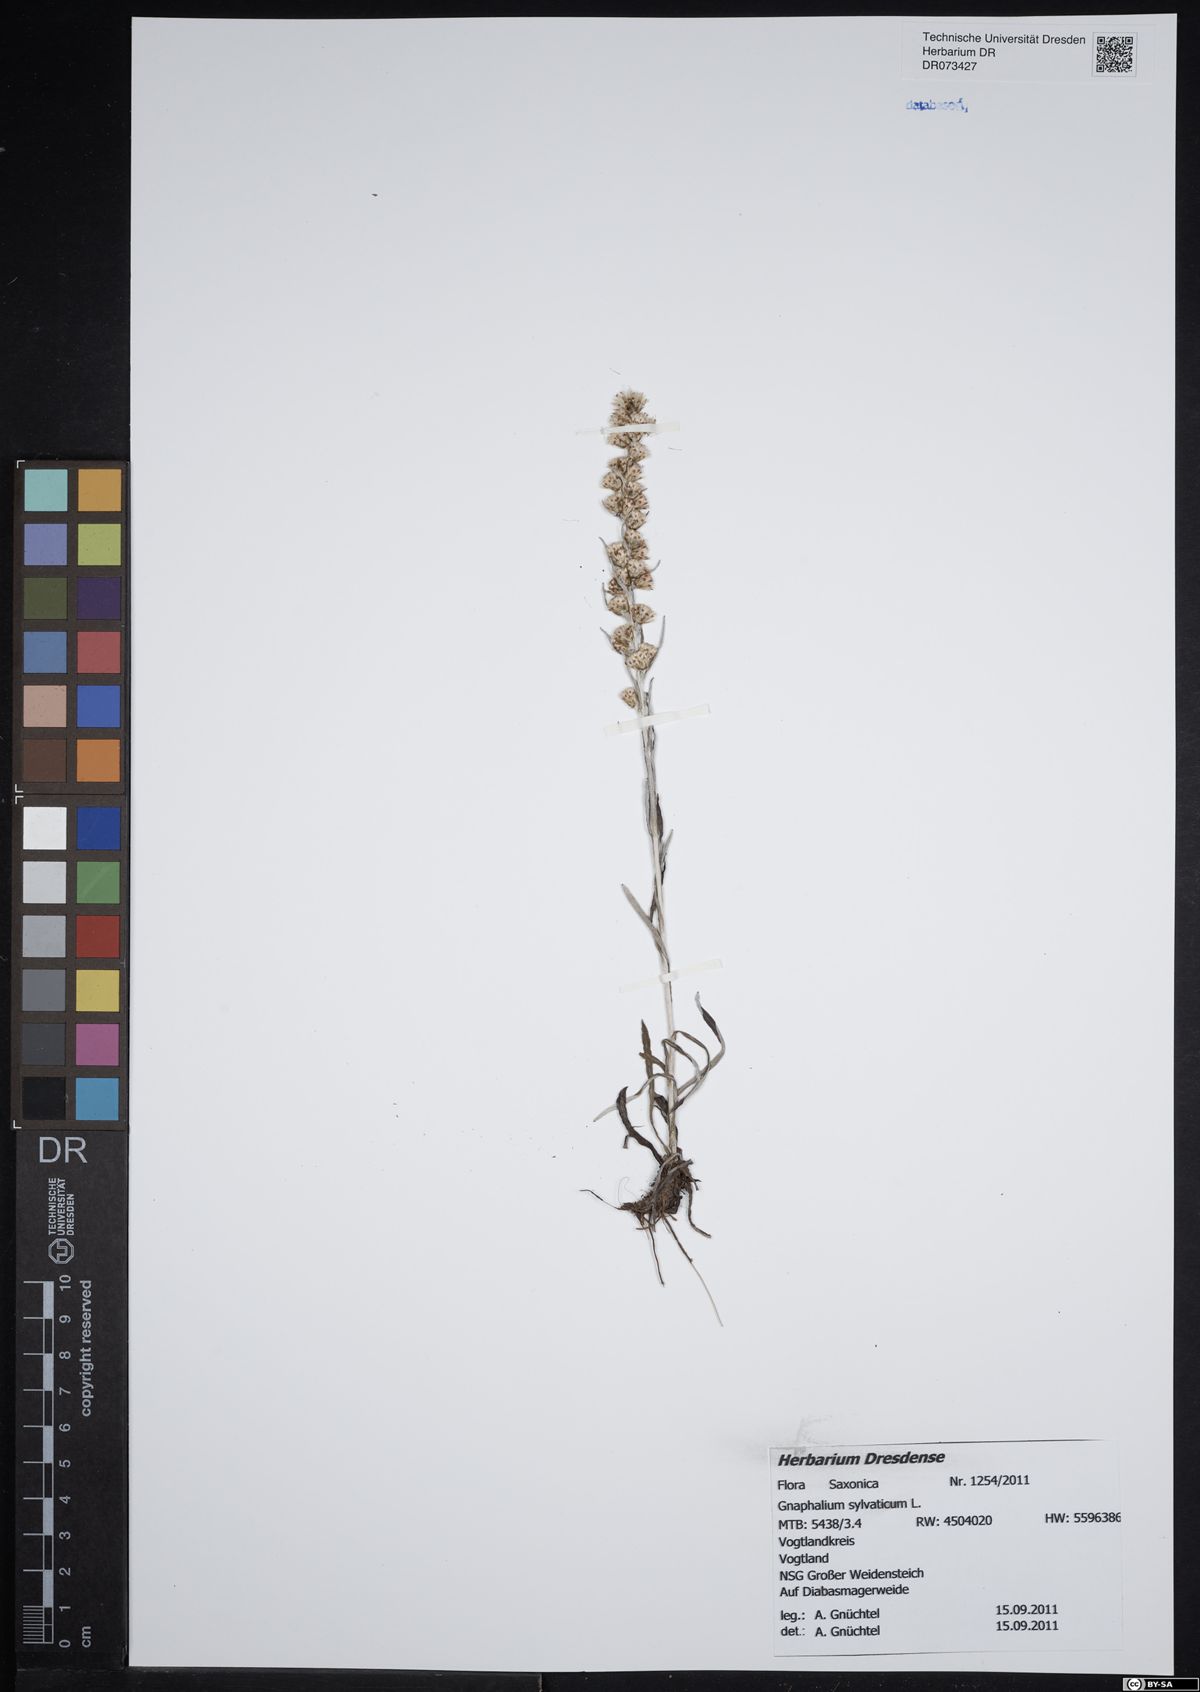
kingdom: Plantae
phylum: Tracheophyta
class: Magnoliopsida
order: Asterales
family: Asteraceae
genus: Gnaphalium
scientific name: Gnaphalium uliginosum
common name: Marsh cudweed
